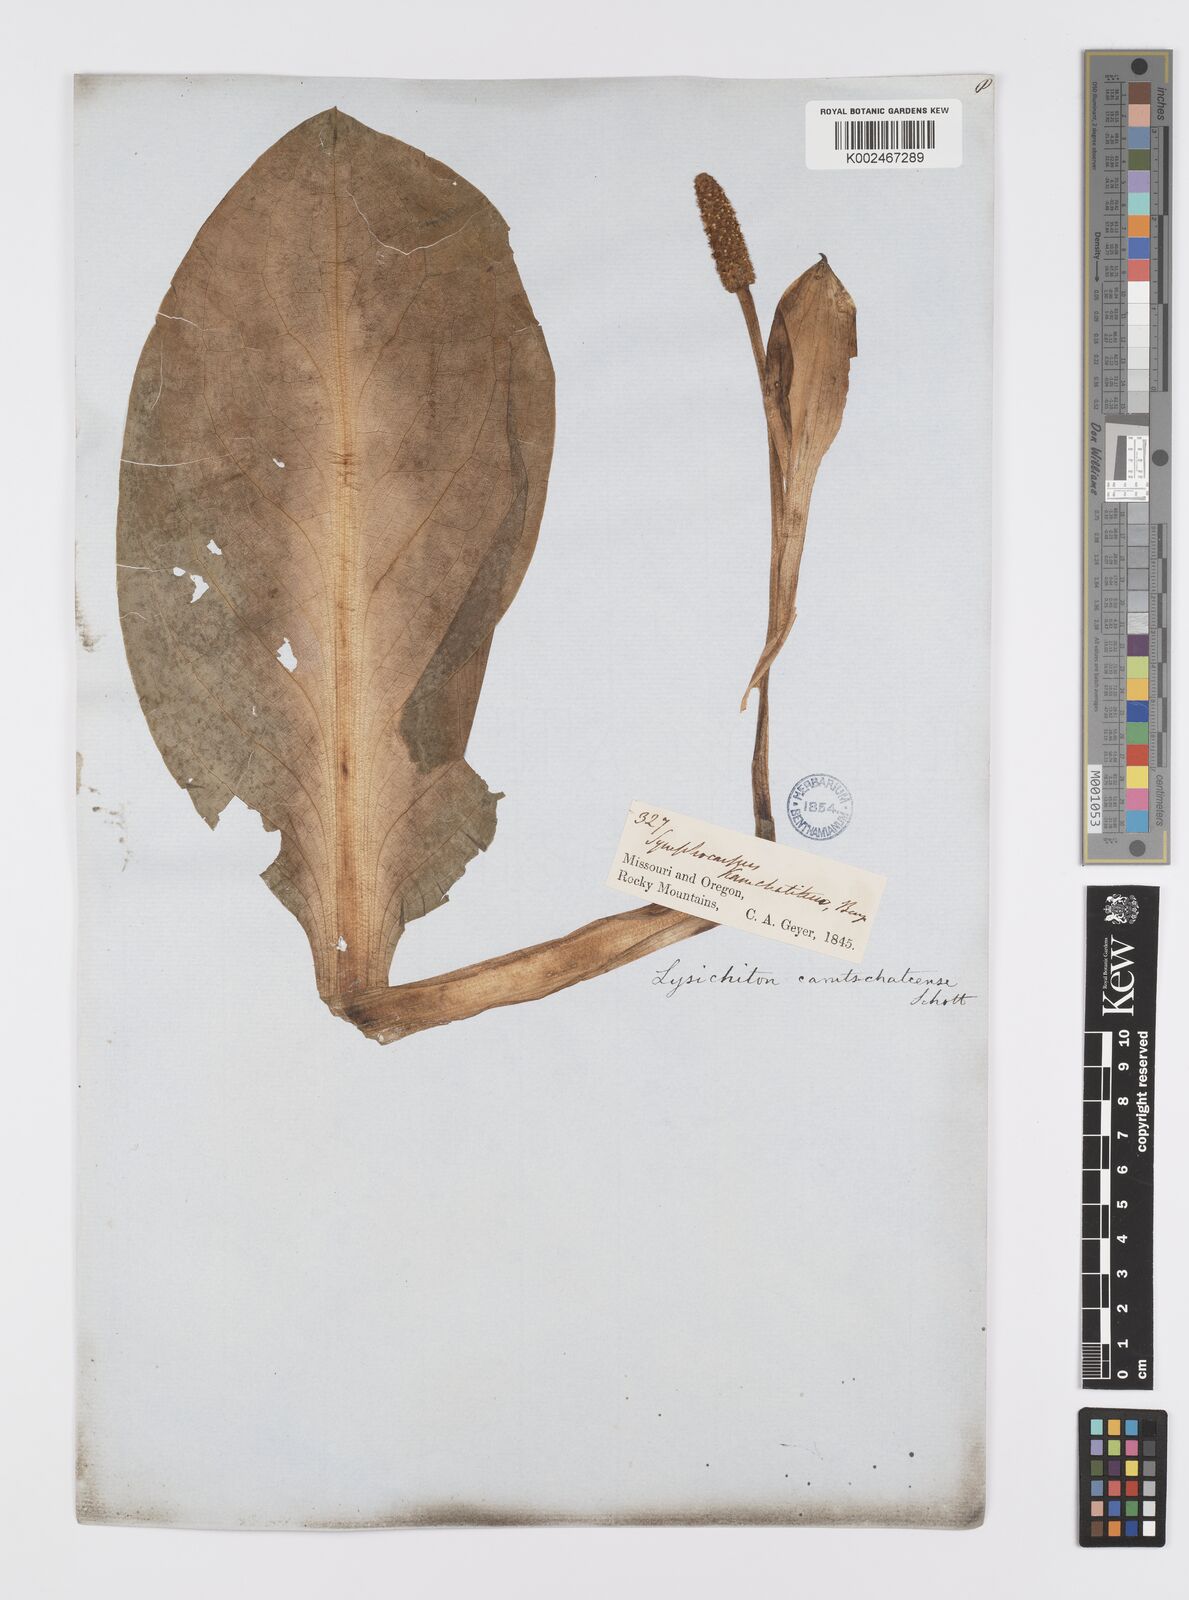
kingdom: Plantae
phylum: Tracheophyta
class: Liliopsida
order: Alismatales
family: Araceae
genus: Lysichiton
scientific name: Lysichiton americanus
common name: American skunk cabbage
